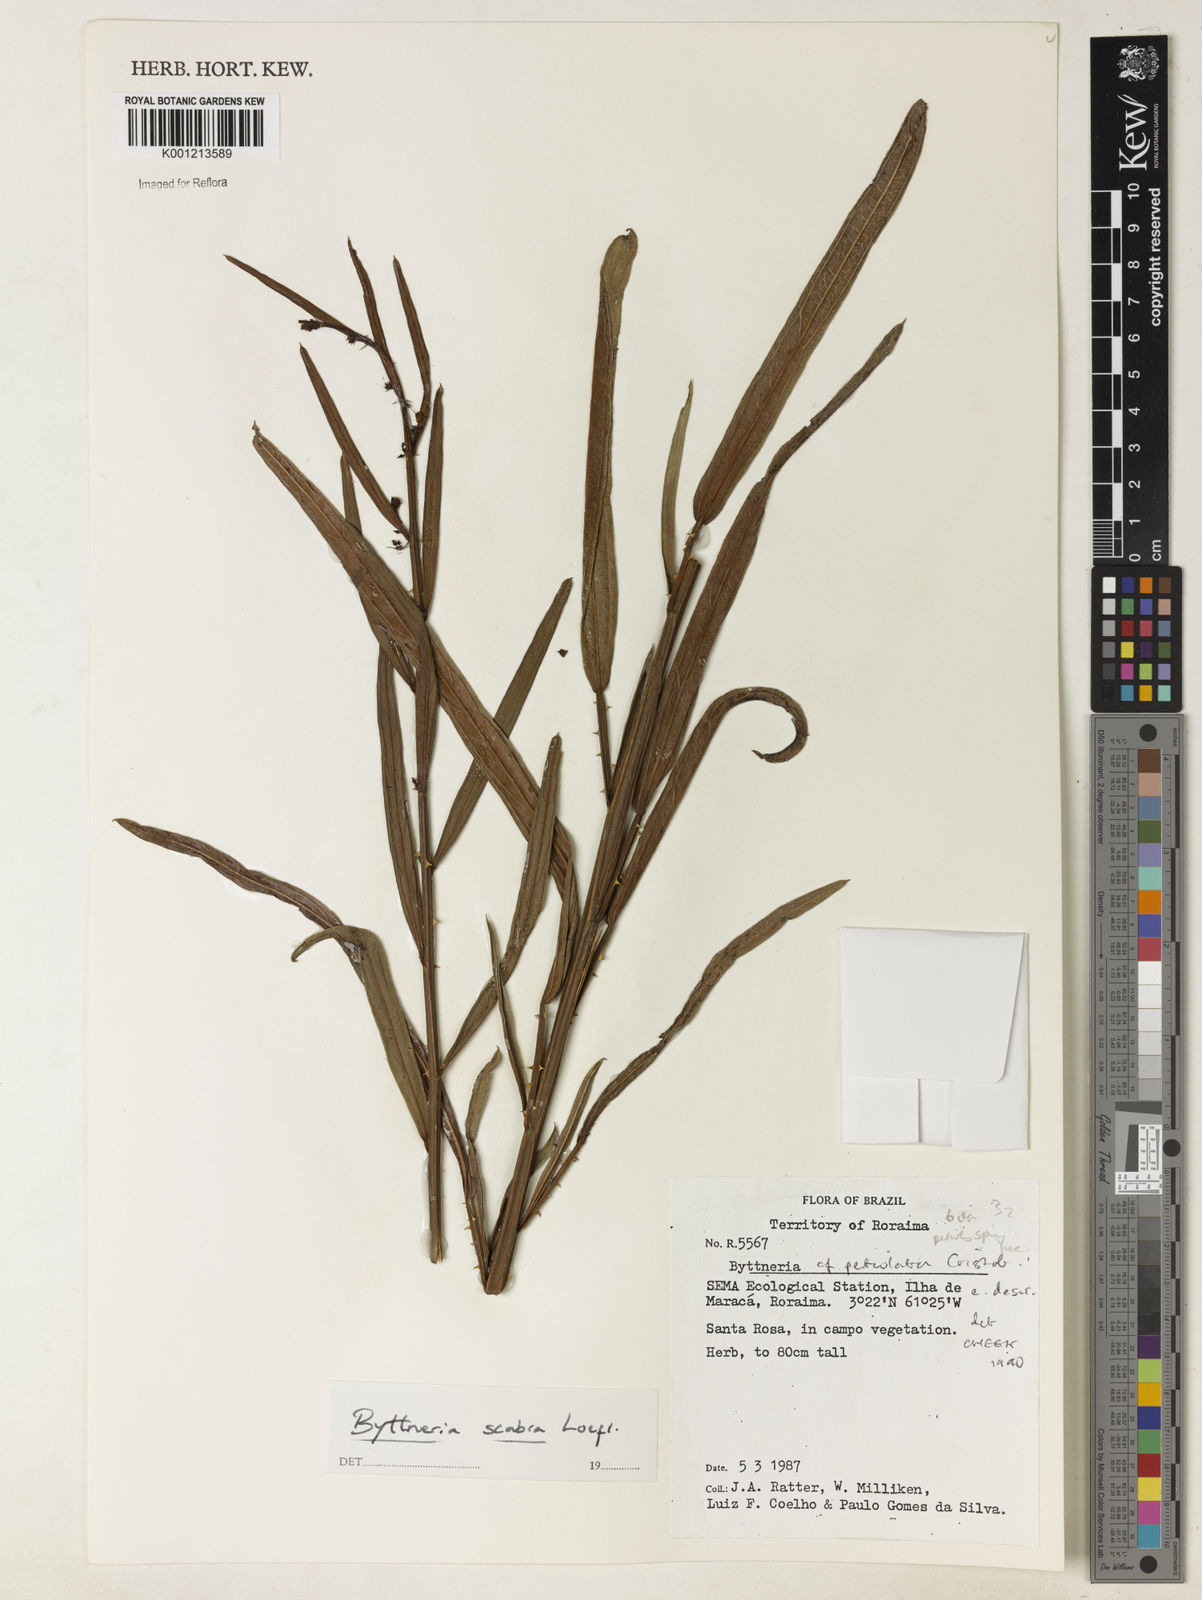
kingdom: Plantae
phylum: Tracheophyta
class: Magnoliopsida
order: Malvales
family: Malvaceae
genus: Byttneria
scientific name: Byttneria
